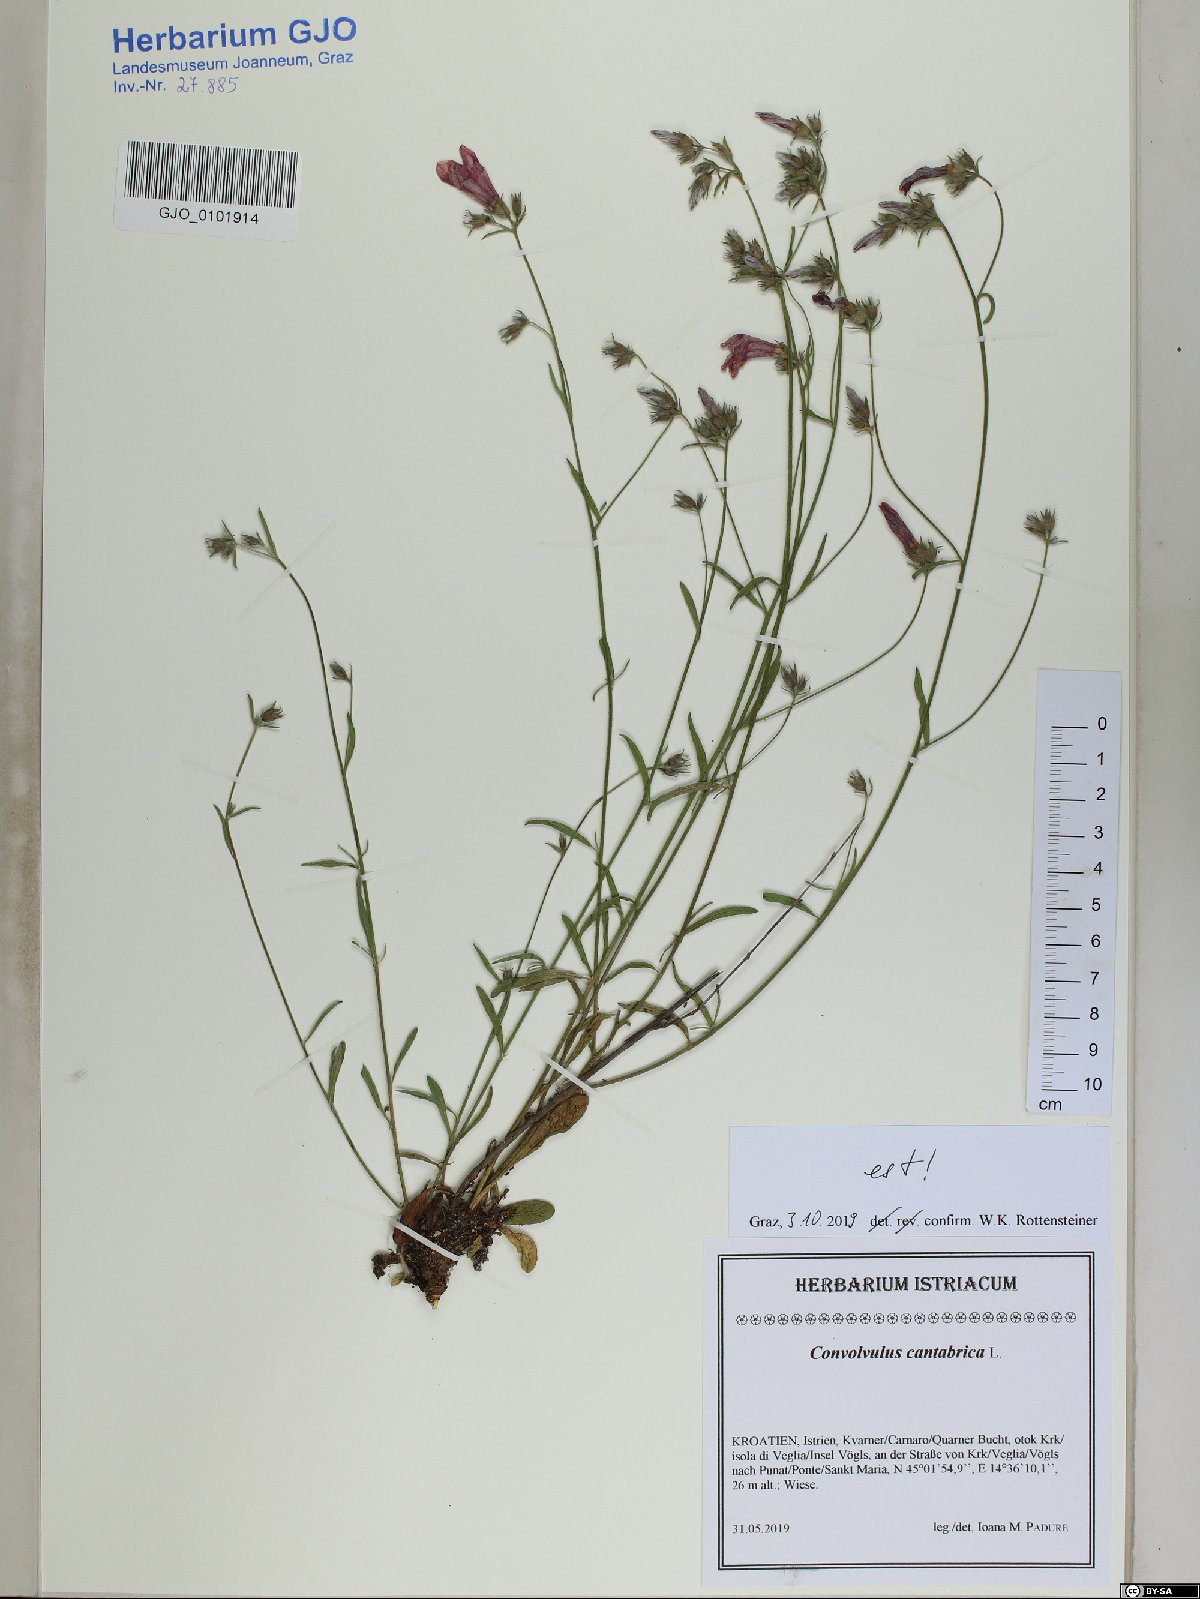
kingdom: Plantae
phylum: Tracheophyta
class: Magnoliopsida
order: Solanales
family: Convolvulaceae
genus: Convolvulus
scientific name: Convolvulus cantabrica
